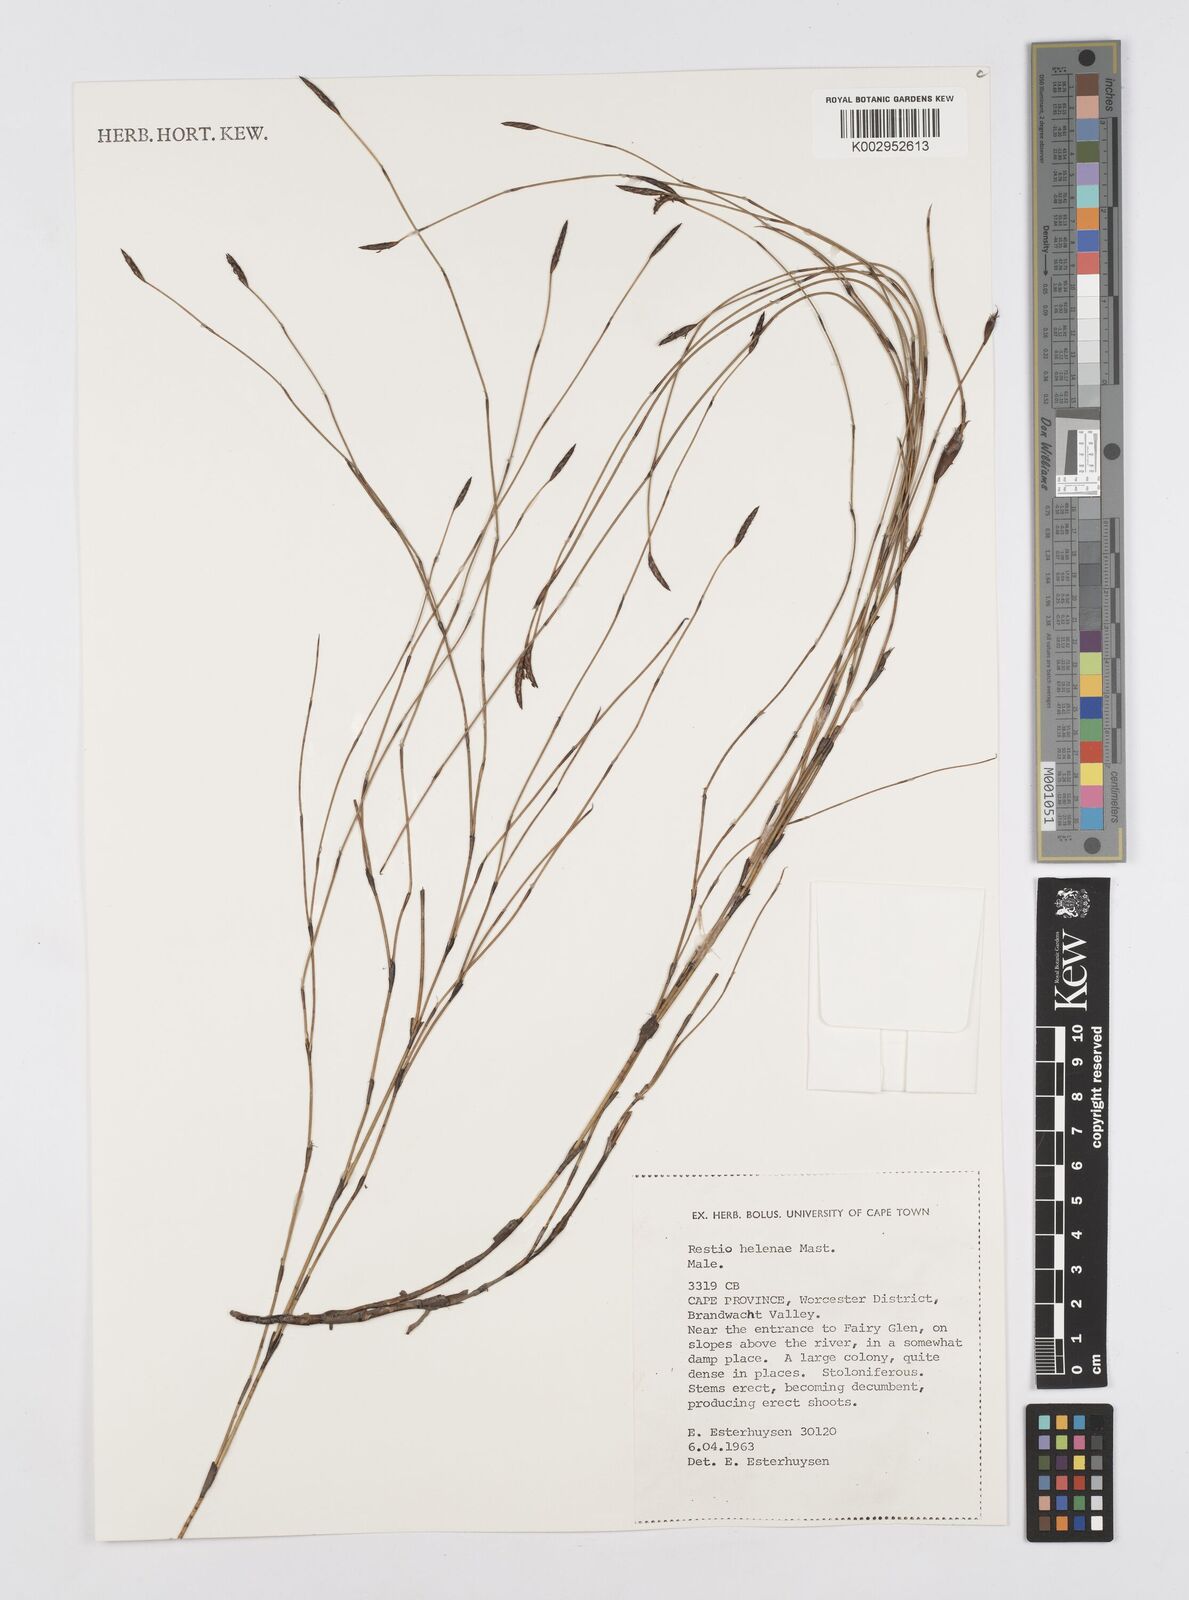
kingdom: Plantae
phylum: Tracheophyta
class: Liliopsida
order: Poales
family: Restionaceae
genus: Restio
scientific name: Restio helenae
